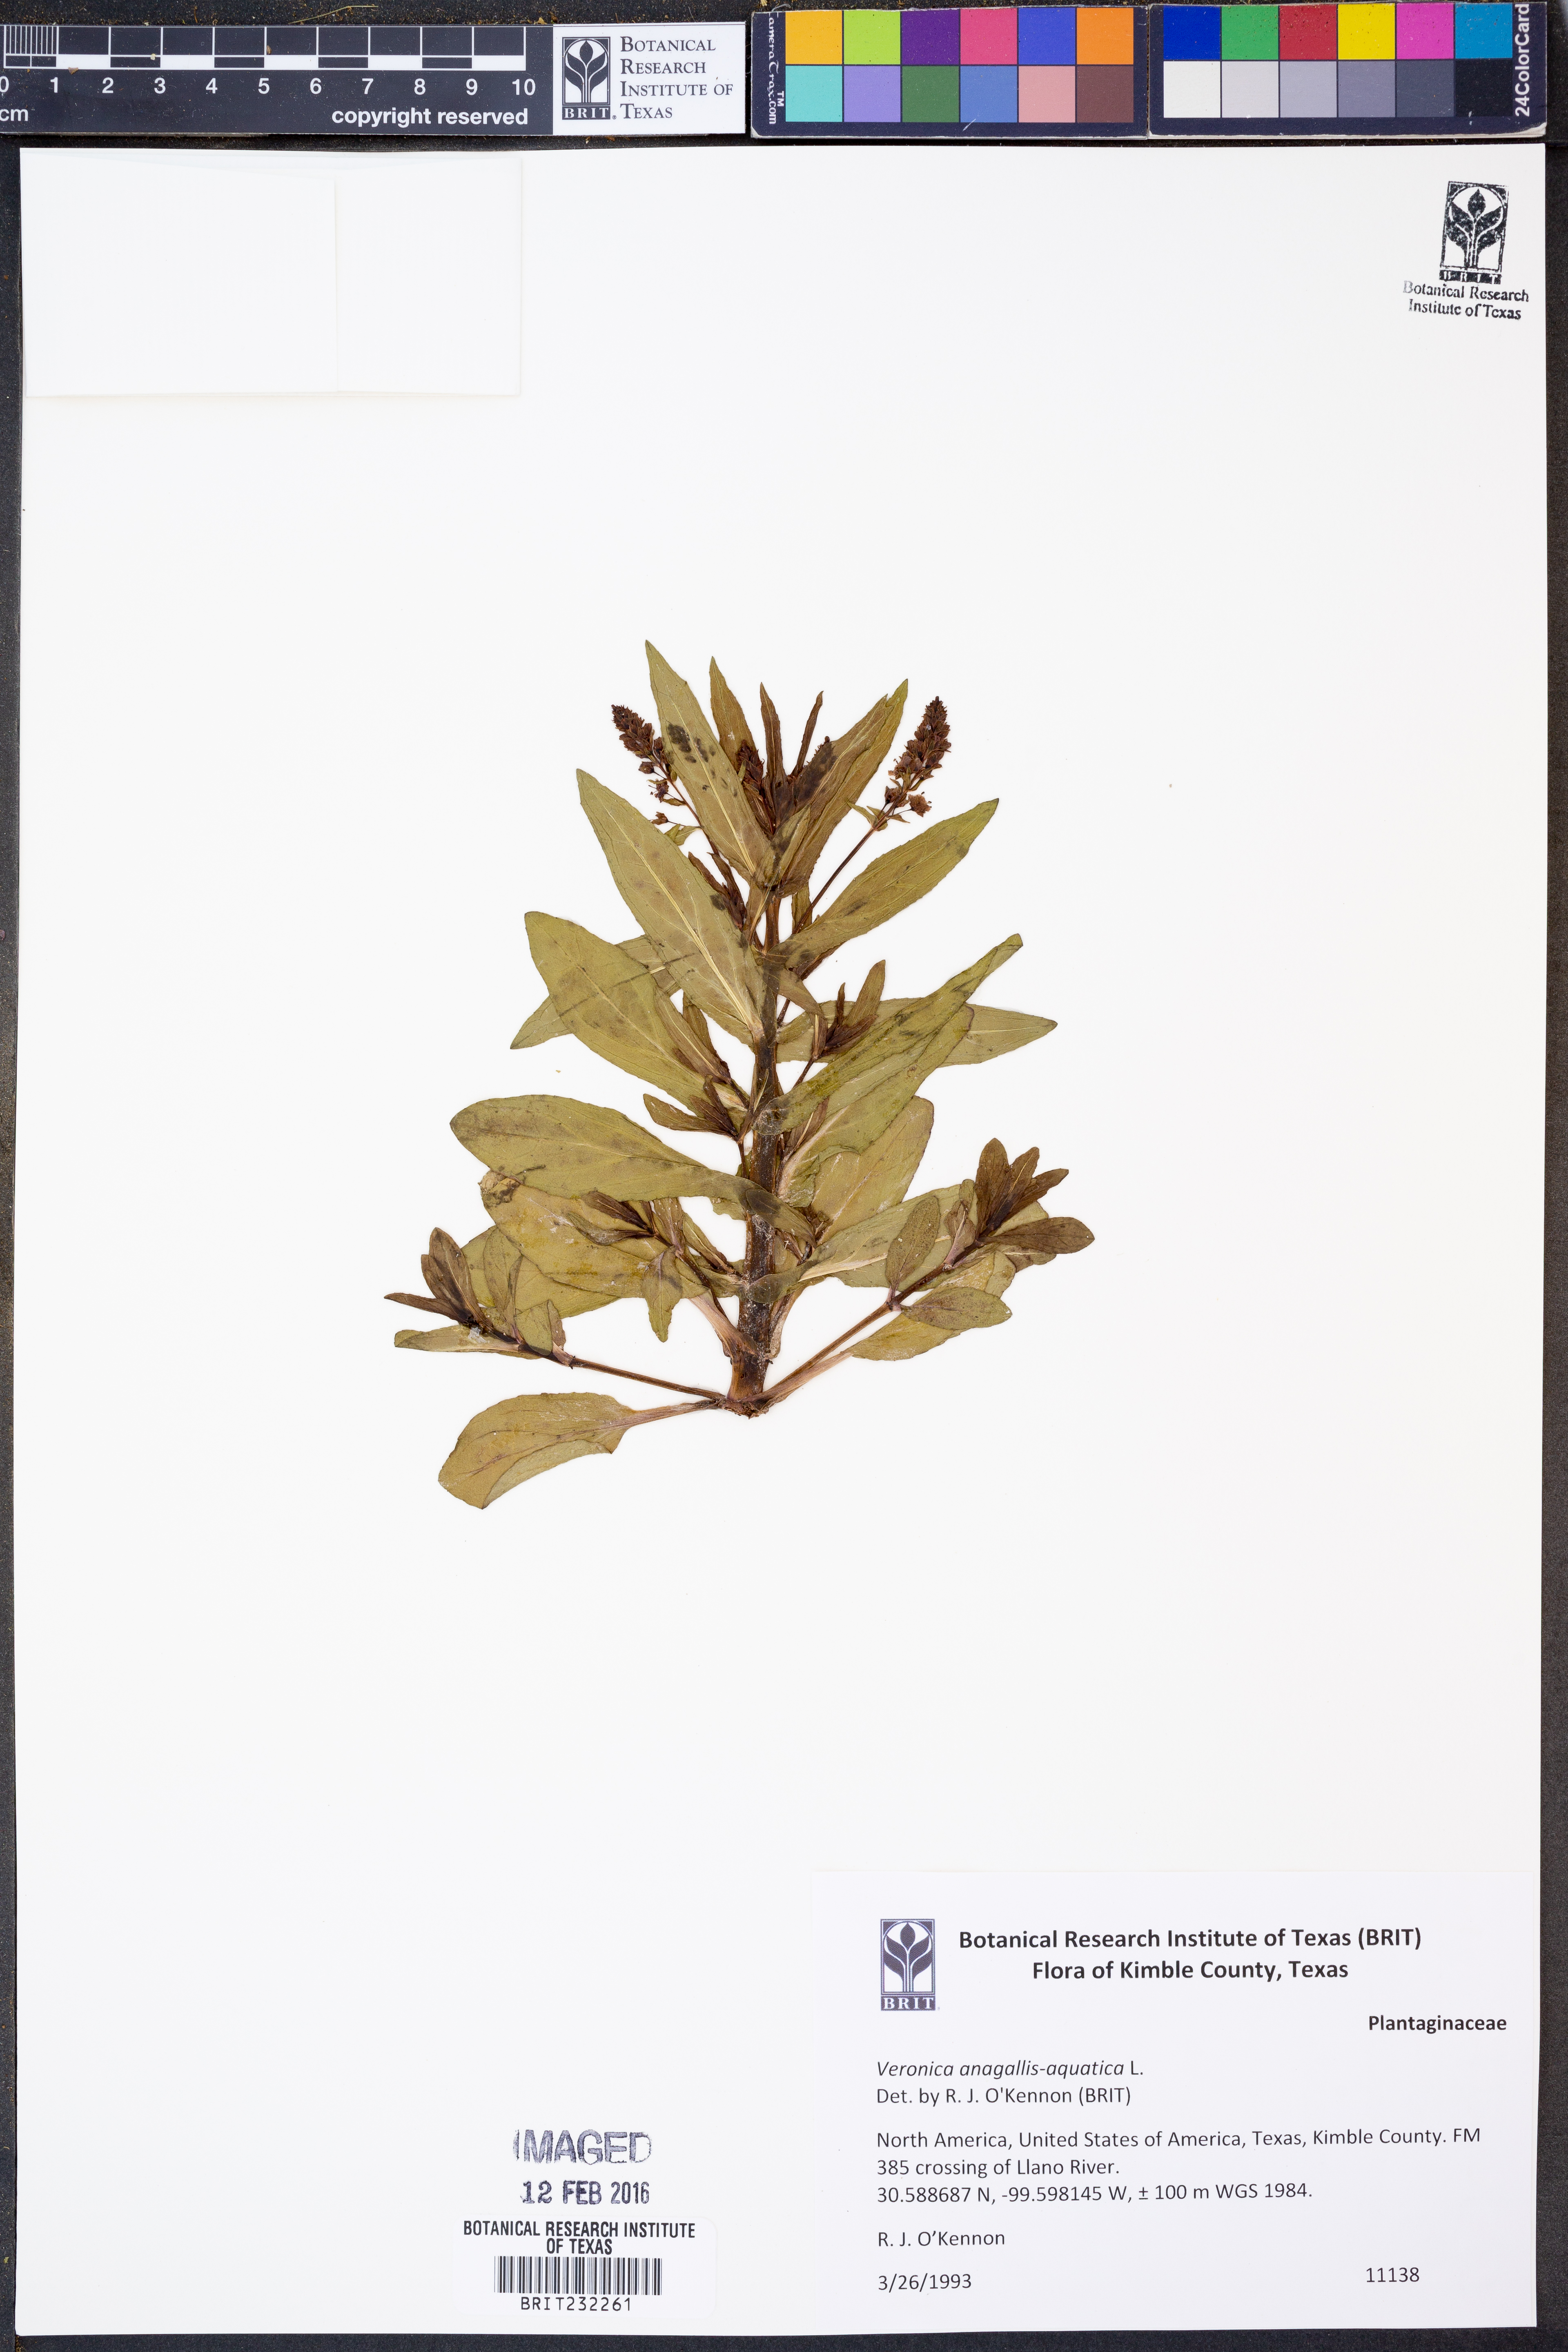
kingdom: Plantae
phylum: Tracheophyta
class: Magnoliopsida
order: Lamiales
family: Plantaginaceae
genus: Veronica
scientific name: Veronica anagallis-aquatica
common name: Water speedwell
